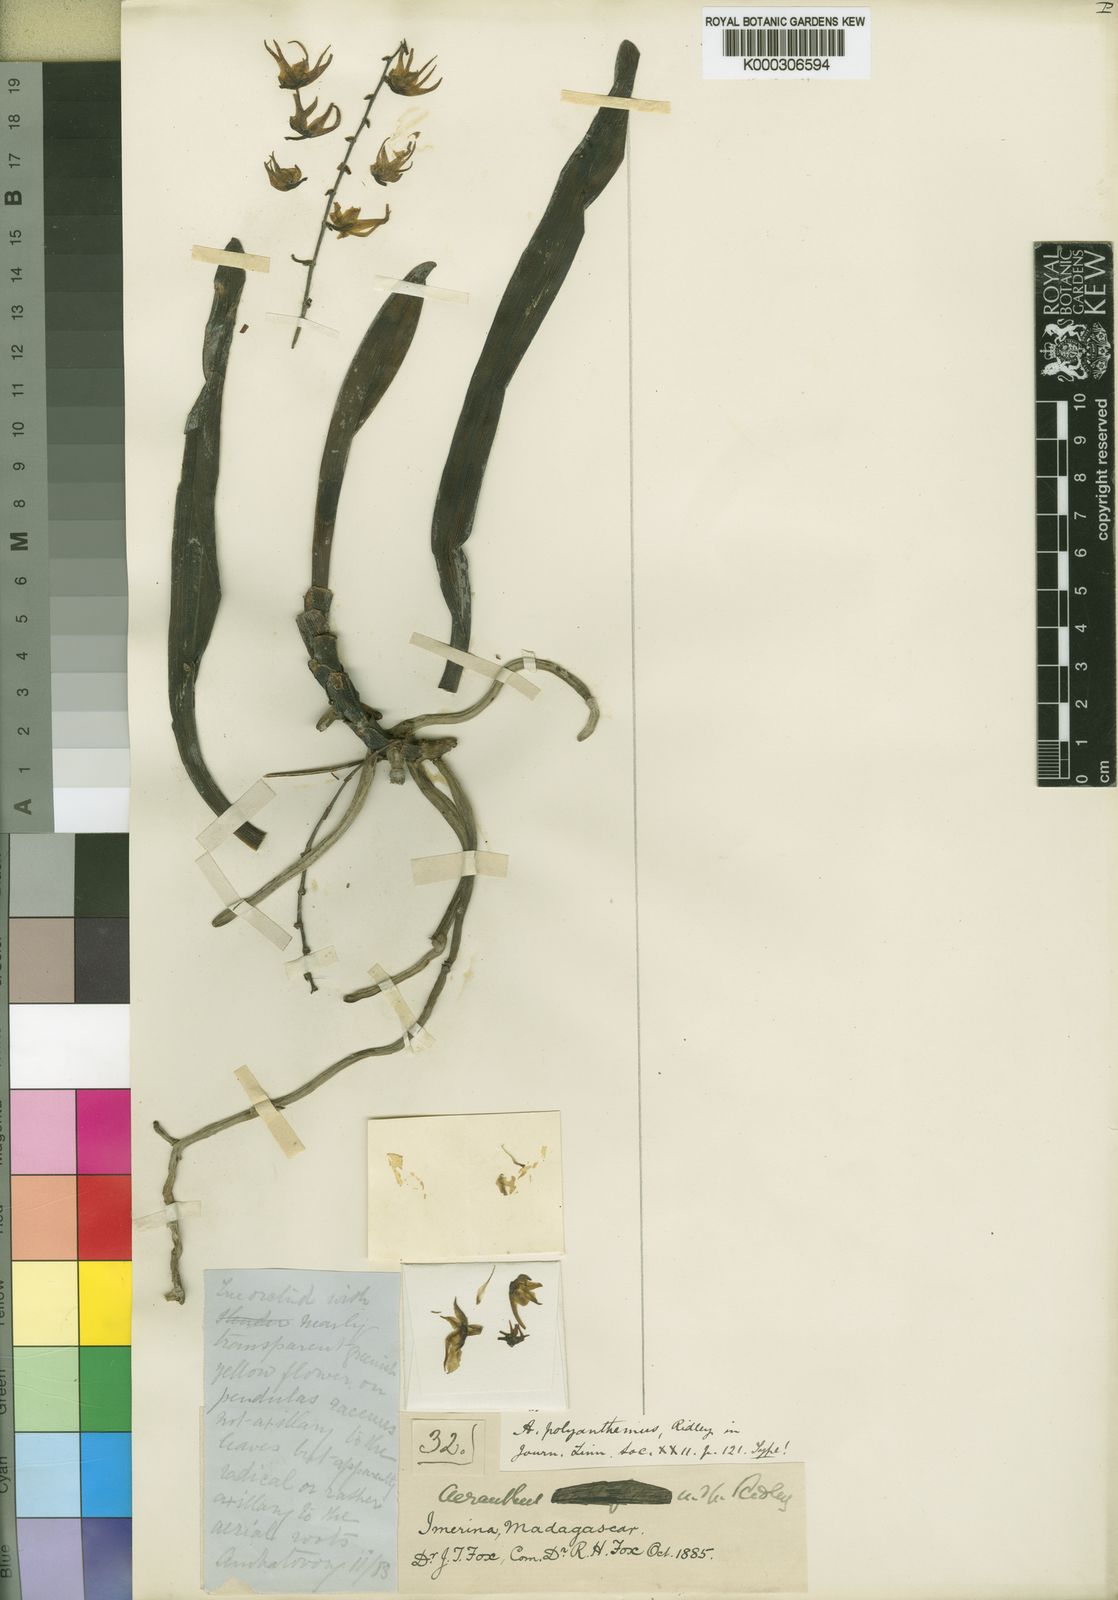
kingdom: Plantae
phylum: Tracheophyta
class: Liliopsida
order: Asparagales
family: Orchidaceae
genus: Aeranthes
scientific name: Aeranthes polyanthemus
